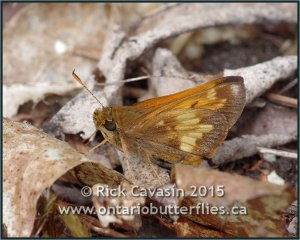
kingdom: Animalia
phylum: Arthropoda
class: Insecta
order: Lepidoptera
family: Hesperiidae
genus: Lon
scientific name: Lon hobomok
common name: Hobomok Skipper
